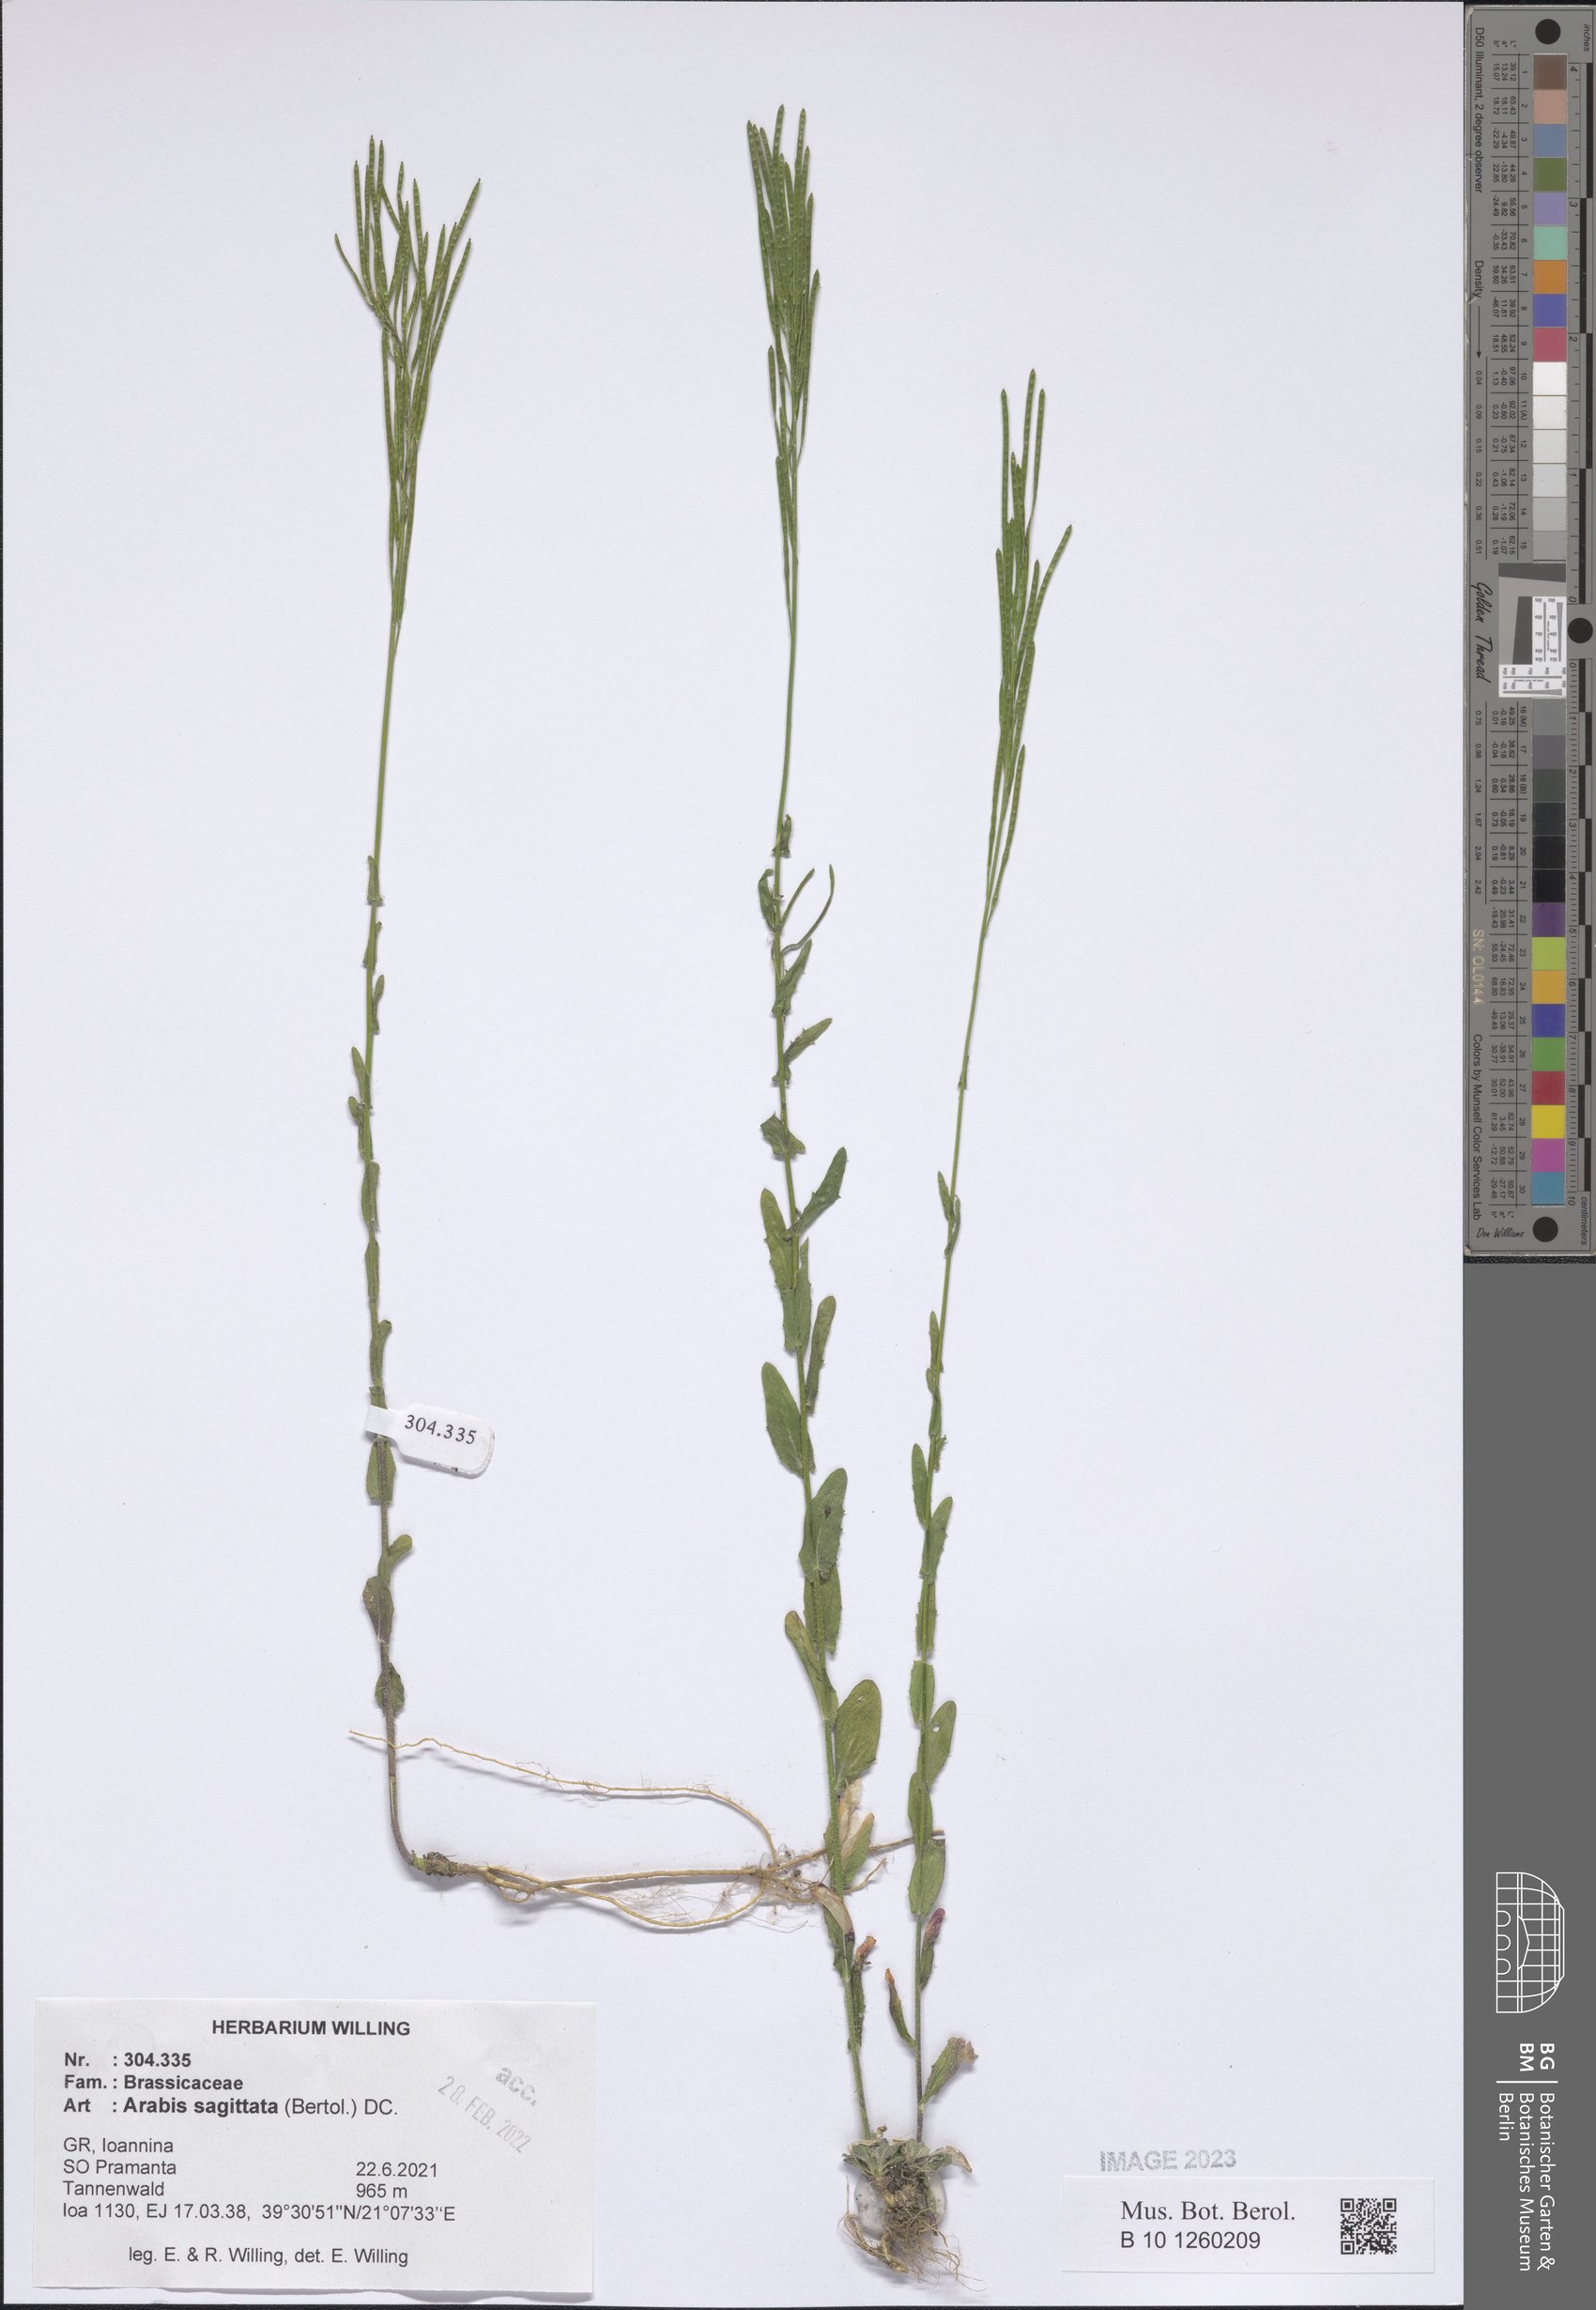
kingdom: Plantae
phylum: Tracheophyta
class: Magnoliopsida
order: Brassicales
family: Brassicaceae
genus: Arabis
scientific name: Arabis sagittata
